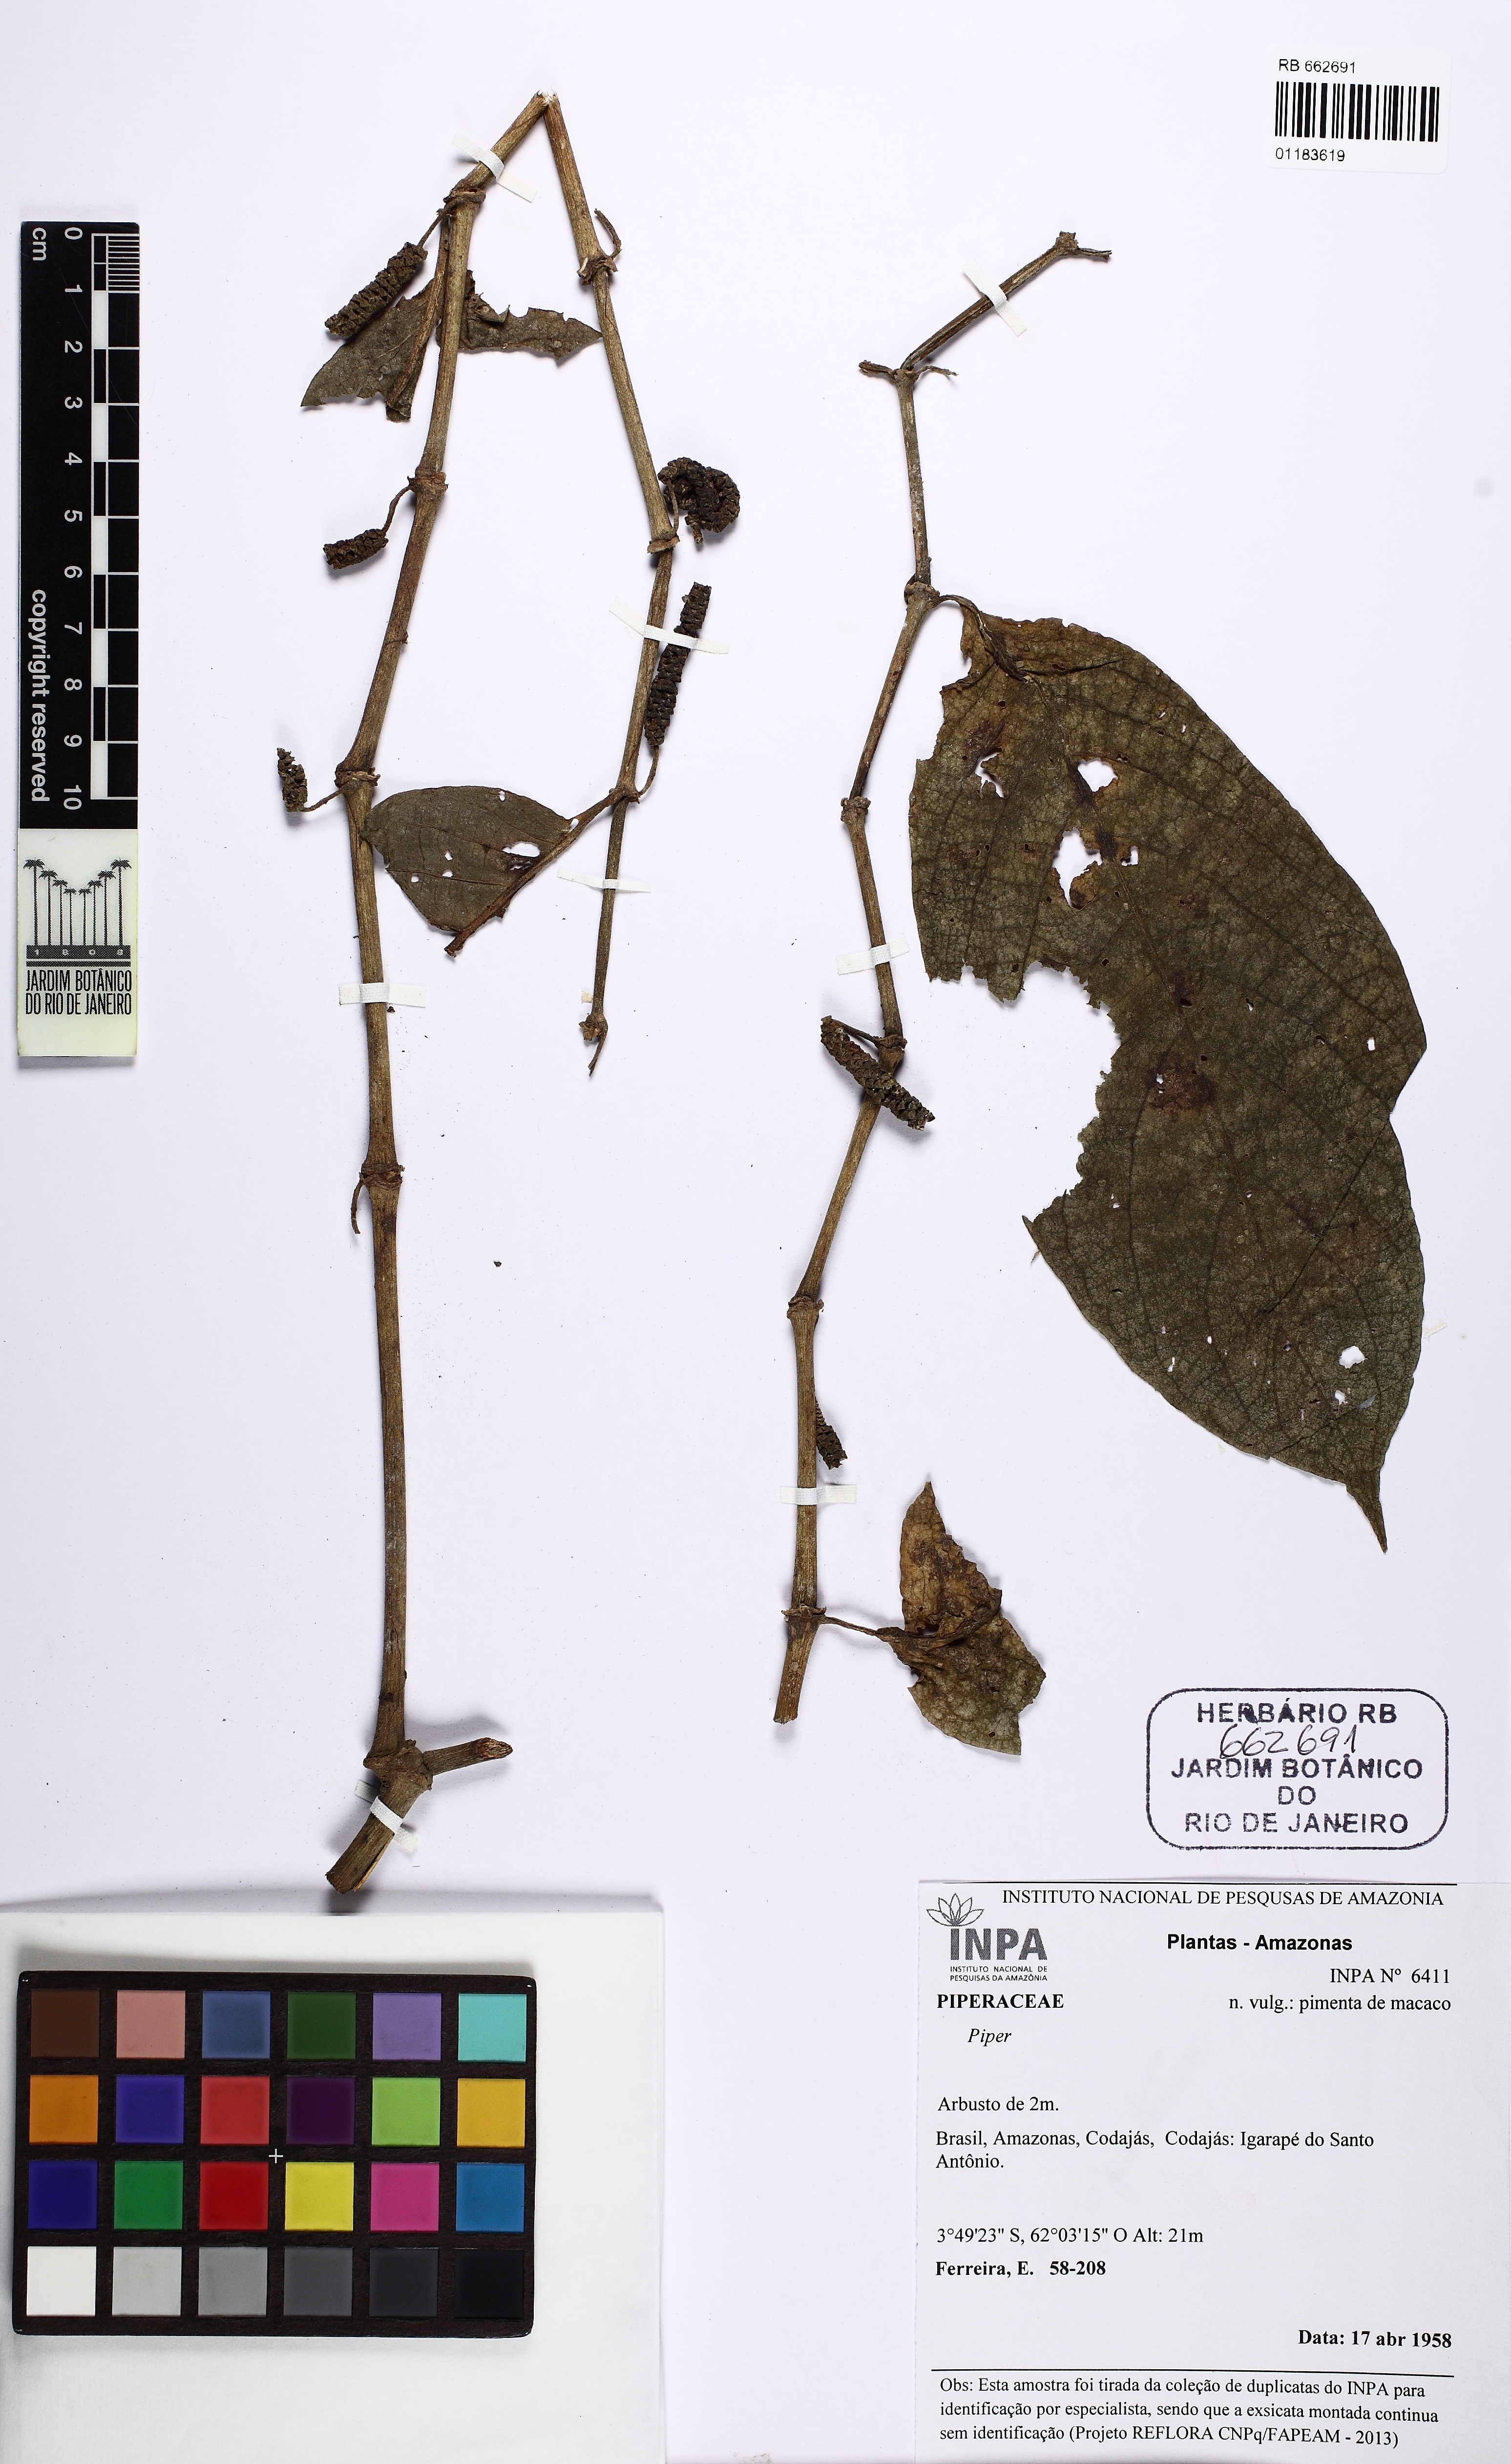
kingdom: Plantae
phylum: Tracheophyta
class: Magnoliopsida
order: Piperales
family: Piperaceae
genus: Piper
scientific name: Piper
